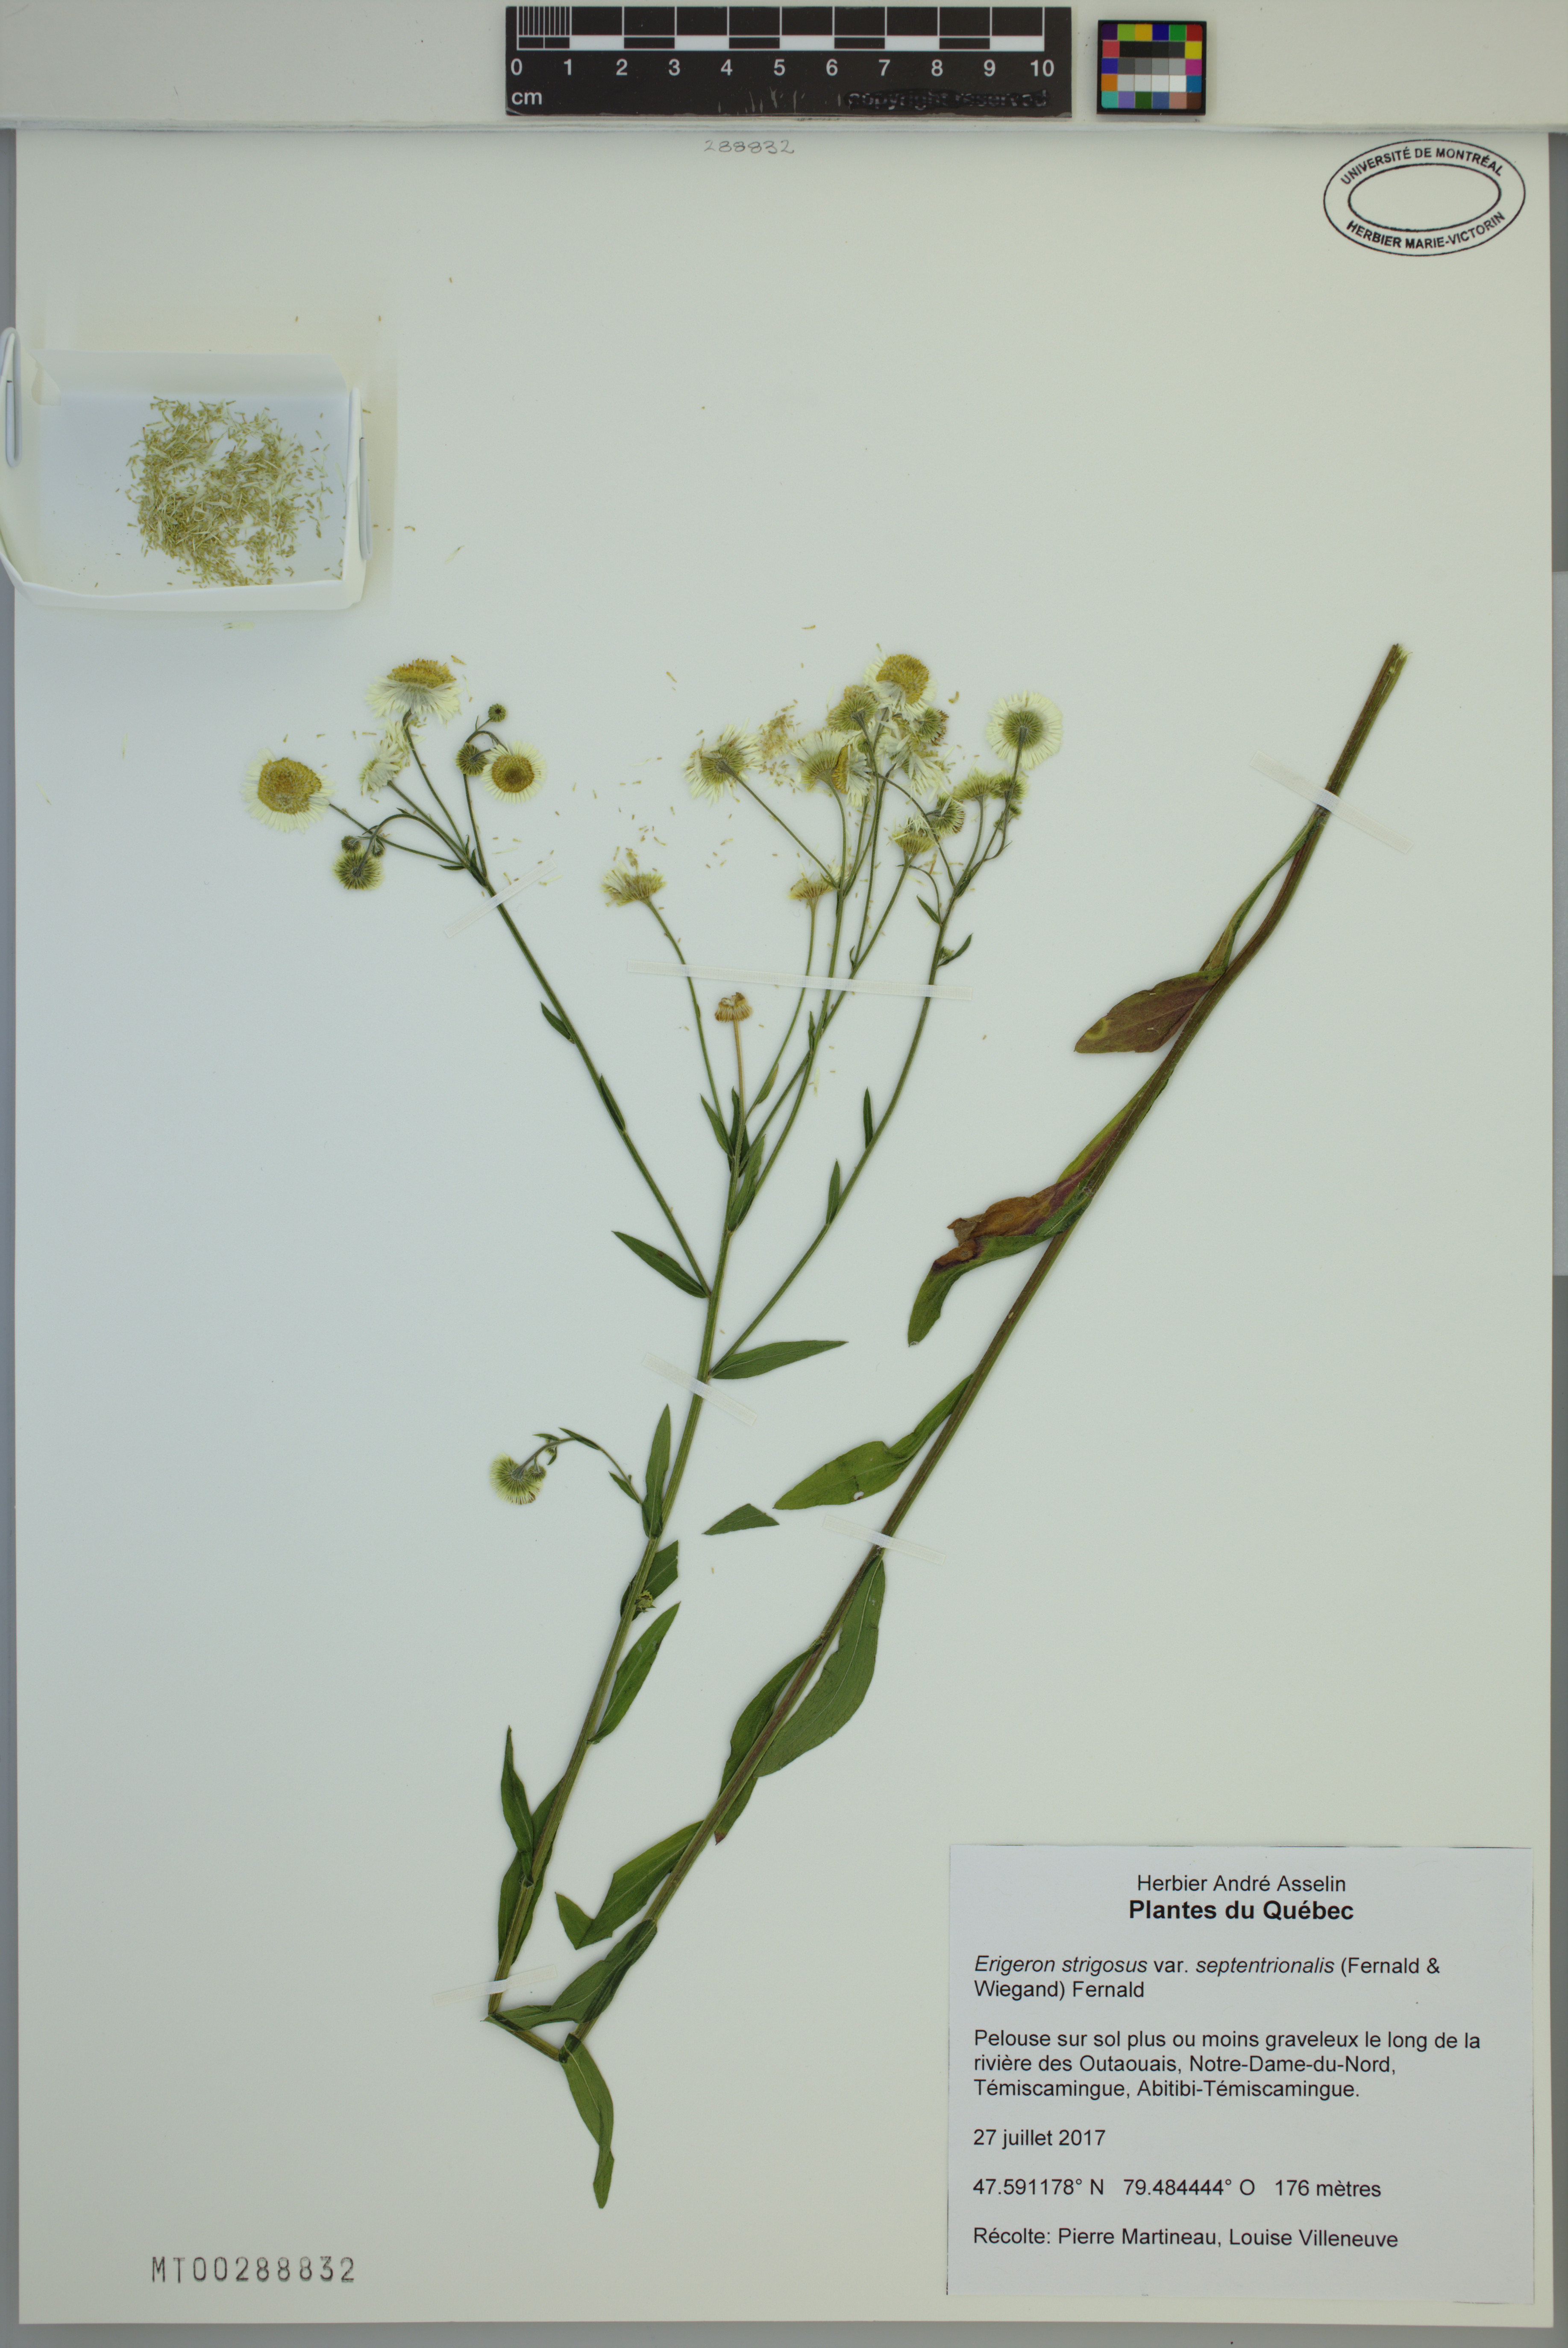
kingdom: Plantae
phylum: Tracheophyta
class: Magnoliopsida
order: Asterales
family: Asteraceae
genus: Erigeron
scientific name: Erigeron annuus
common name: Tall fleabane
